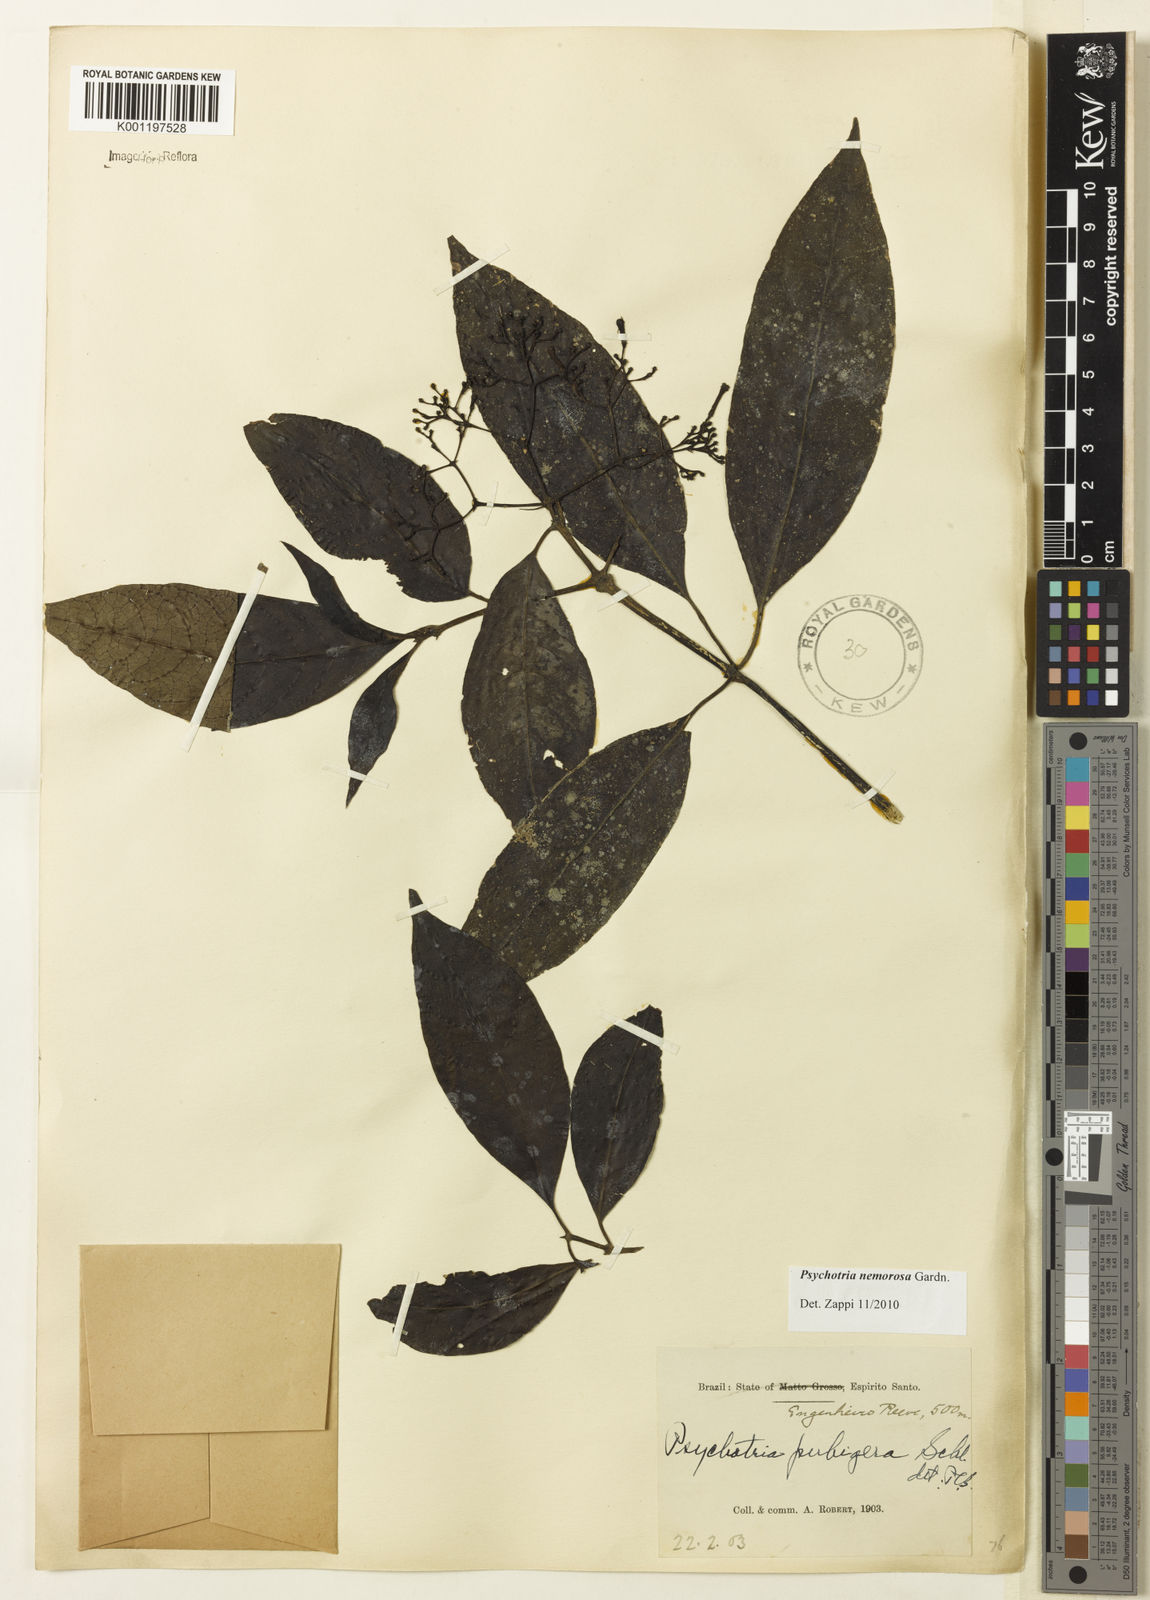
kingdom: Plantae
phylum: Tracheophyta
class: Magnoliopsida
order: Gentianales
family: Rubiaceae
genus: Psychotria
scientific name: Psychotria nemorosa
